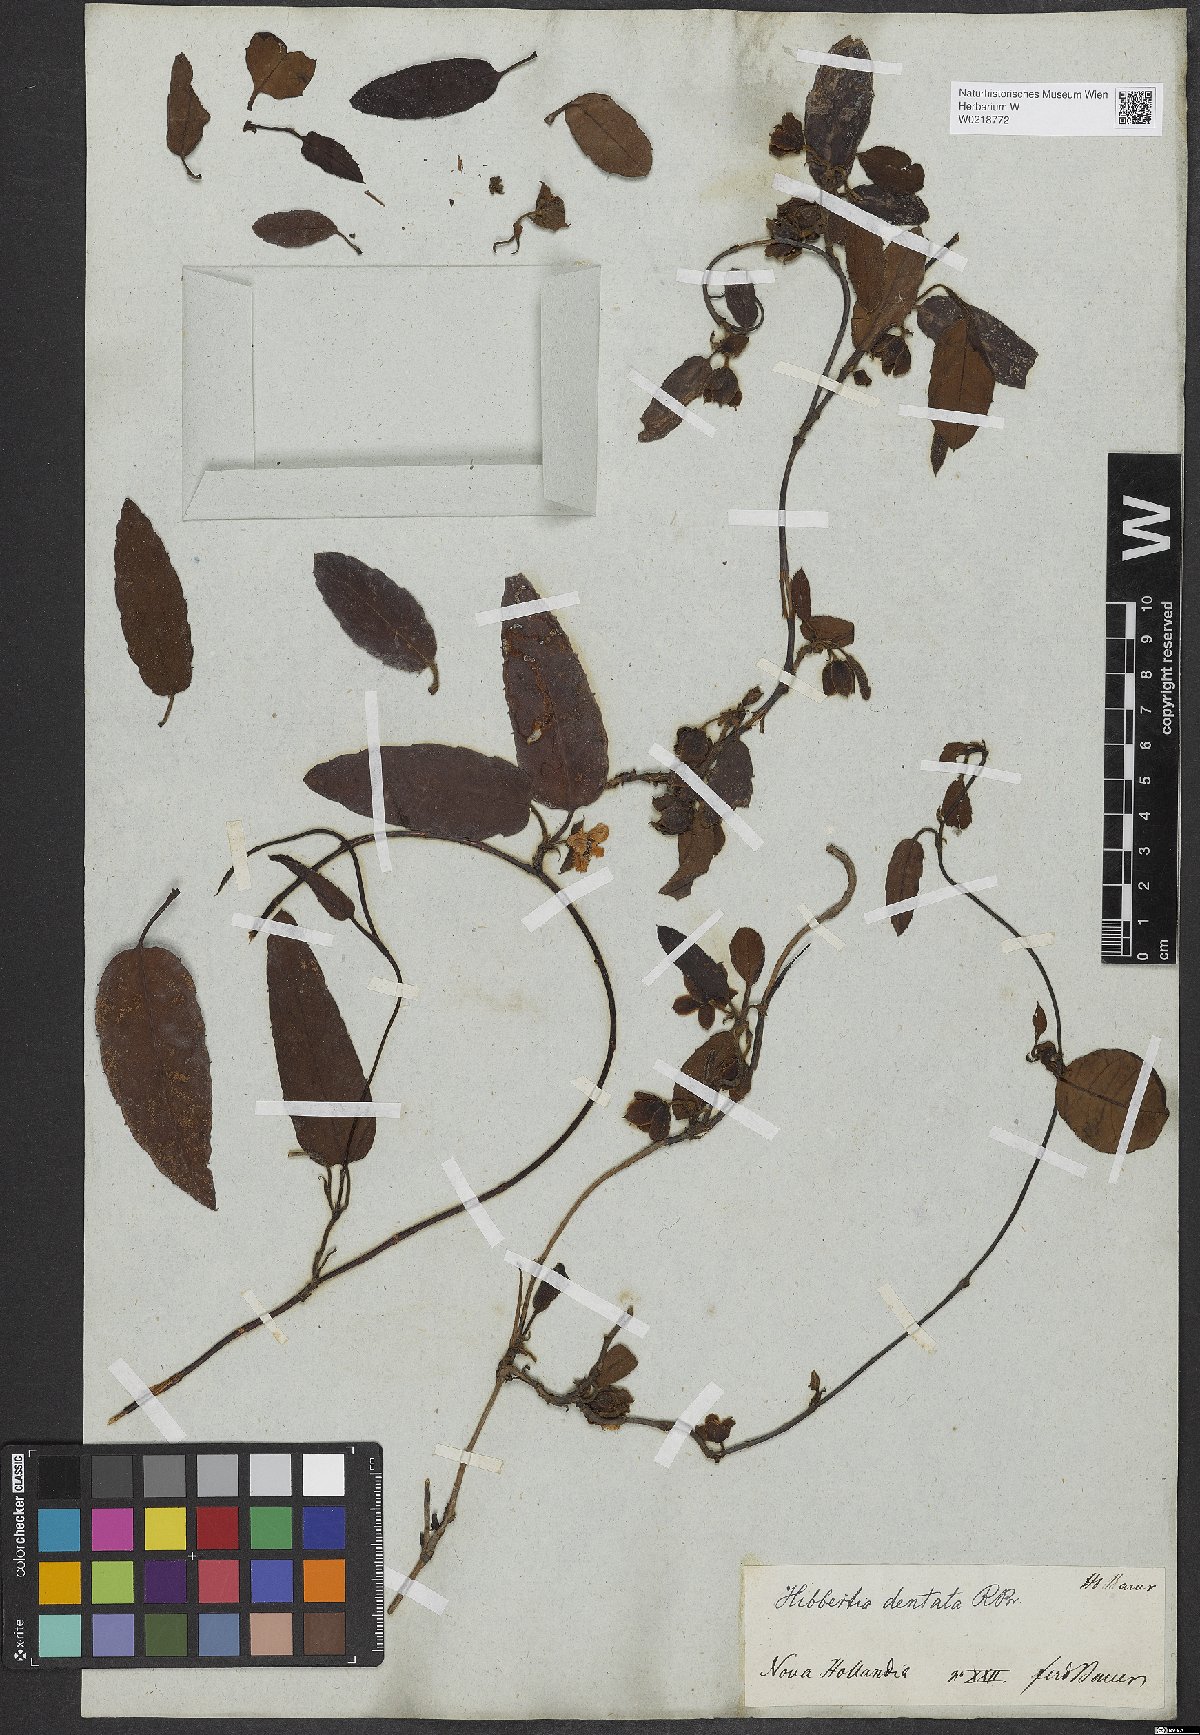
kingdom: Plantae
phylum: Tracheophyta
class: Magnoliopsida
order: Dilleniales
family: Dilleniaceae
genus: Hibbertia
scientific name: Hibbertia dentata
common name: Trailing guinea-flower
